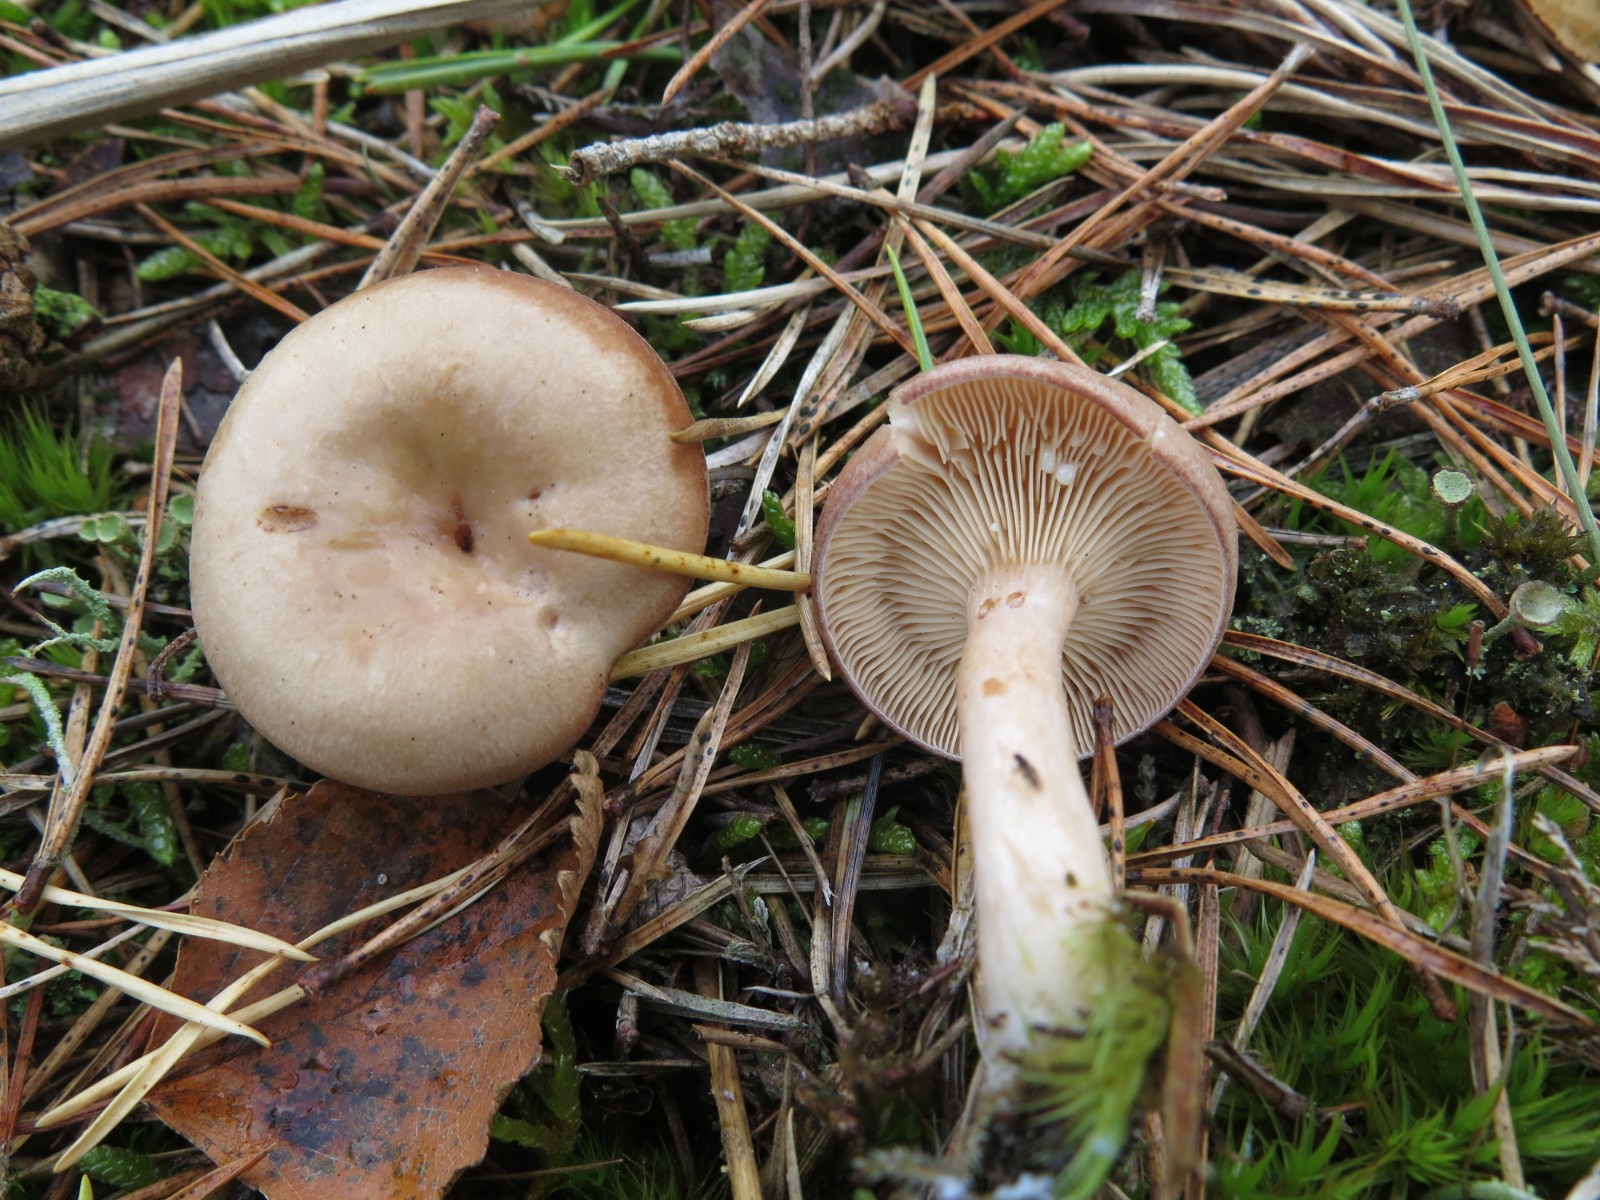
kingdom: Fungi
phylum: Basidiomycota
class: Agaricomycetes
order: Russulales
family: Russulaceae
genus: Lactarius
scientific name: Lactarius vietus
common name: violetgrå mælkehat
